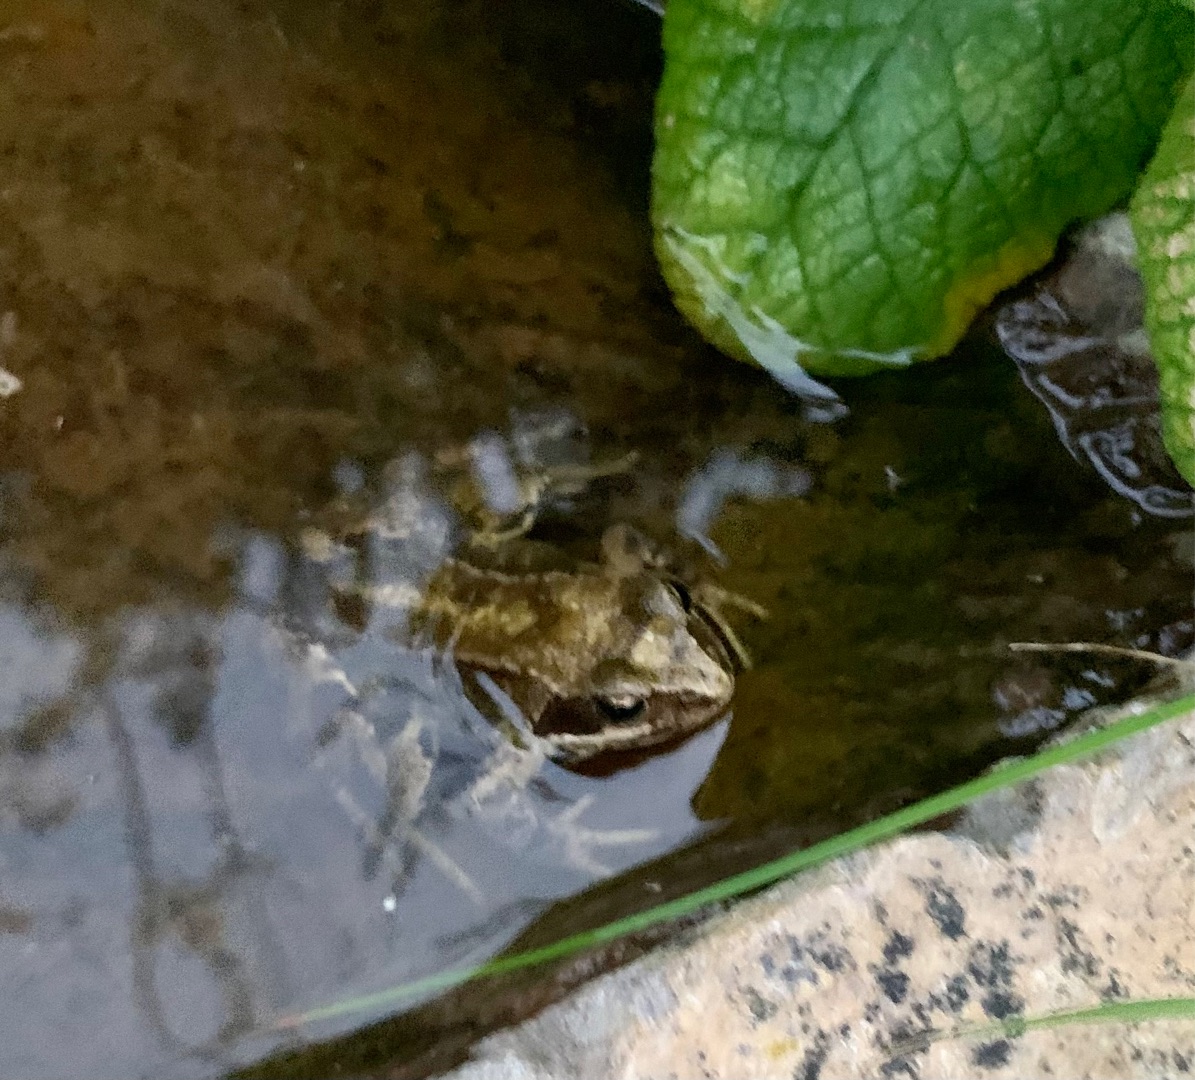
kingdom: Animalia
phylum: Chordata
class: Amphibia
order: Anura
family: Ranidae
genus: Rana
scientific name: Rana temporaria
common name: Butsnudet frø
